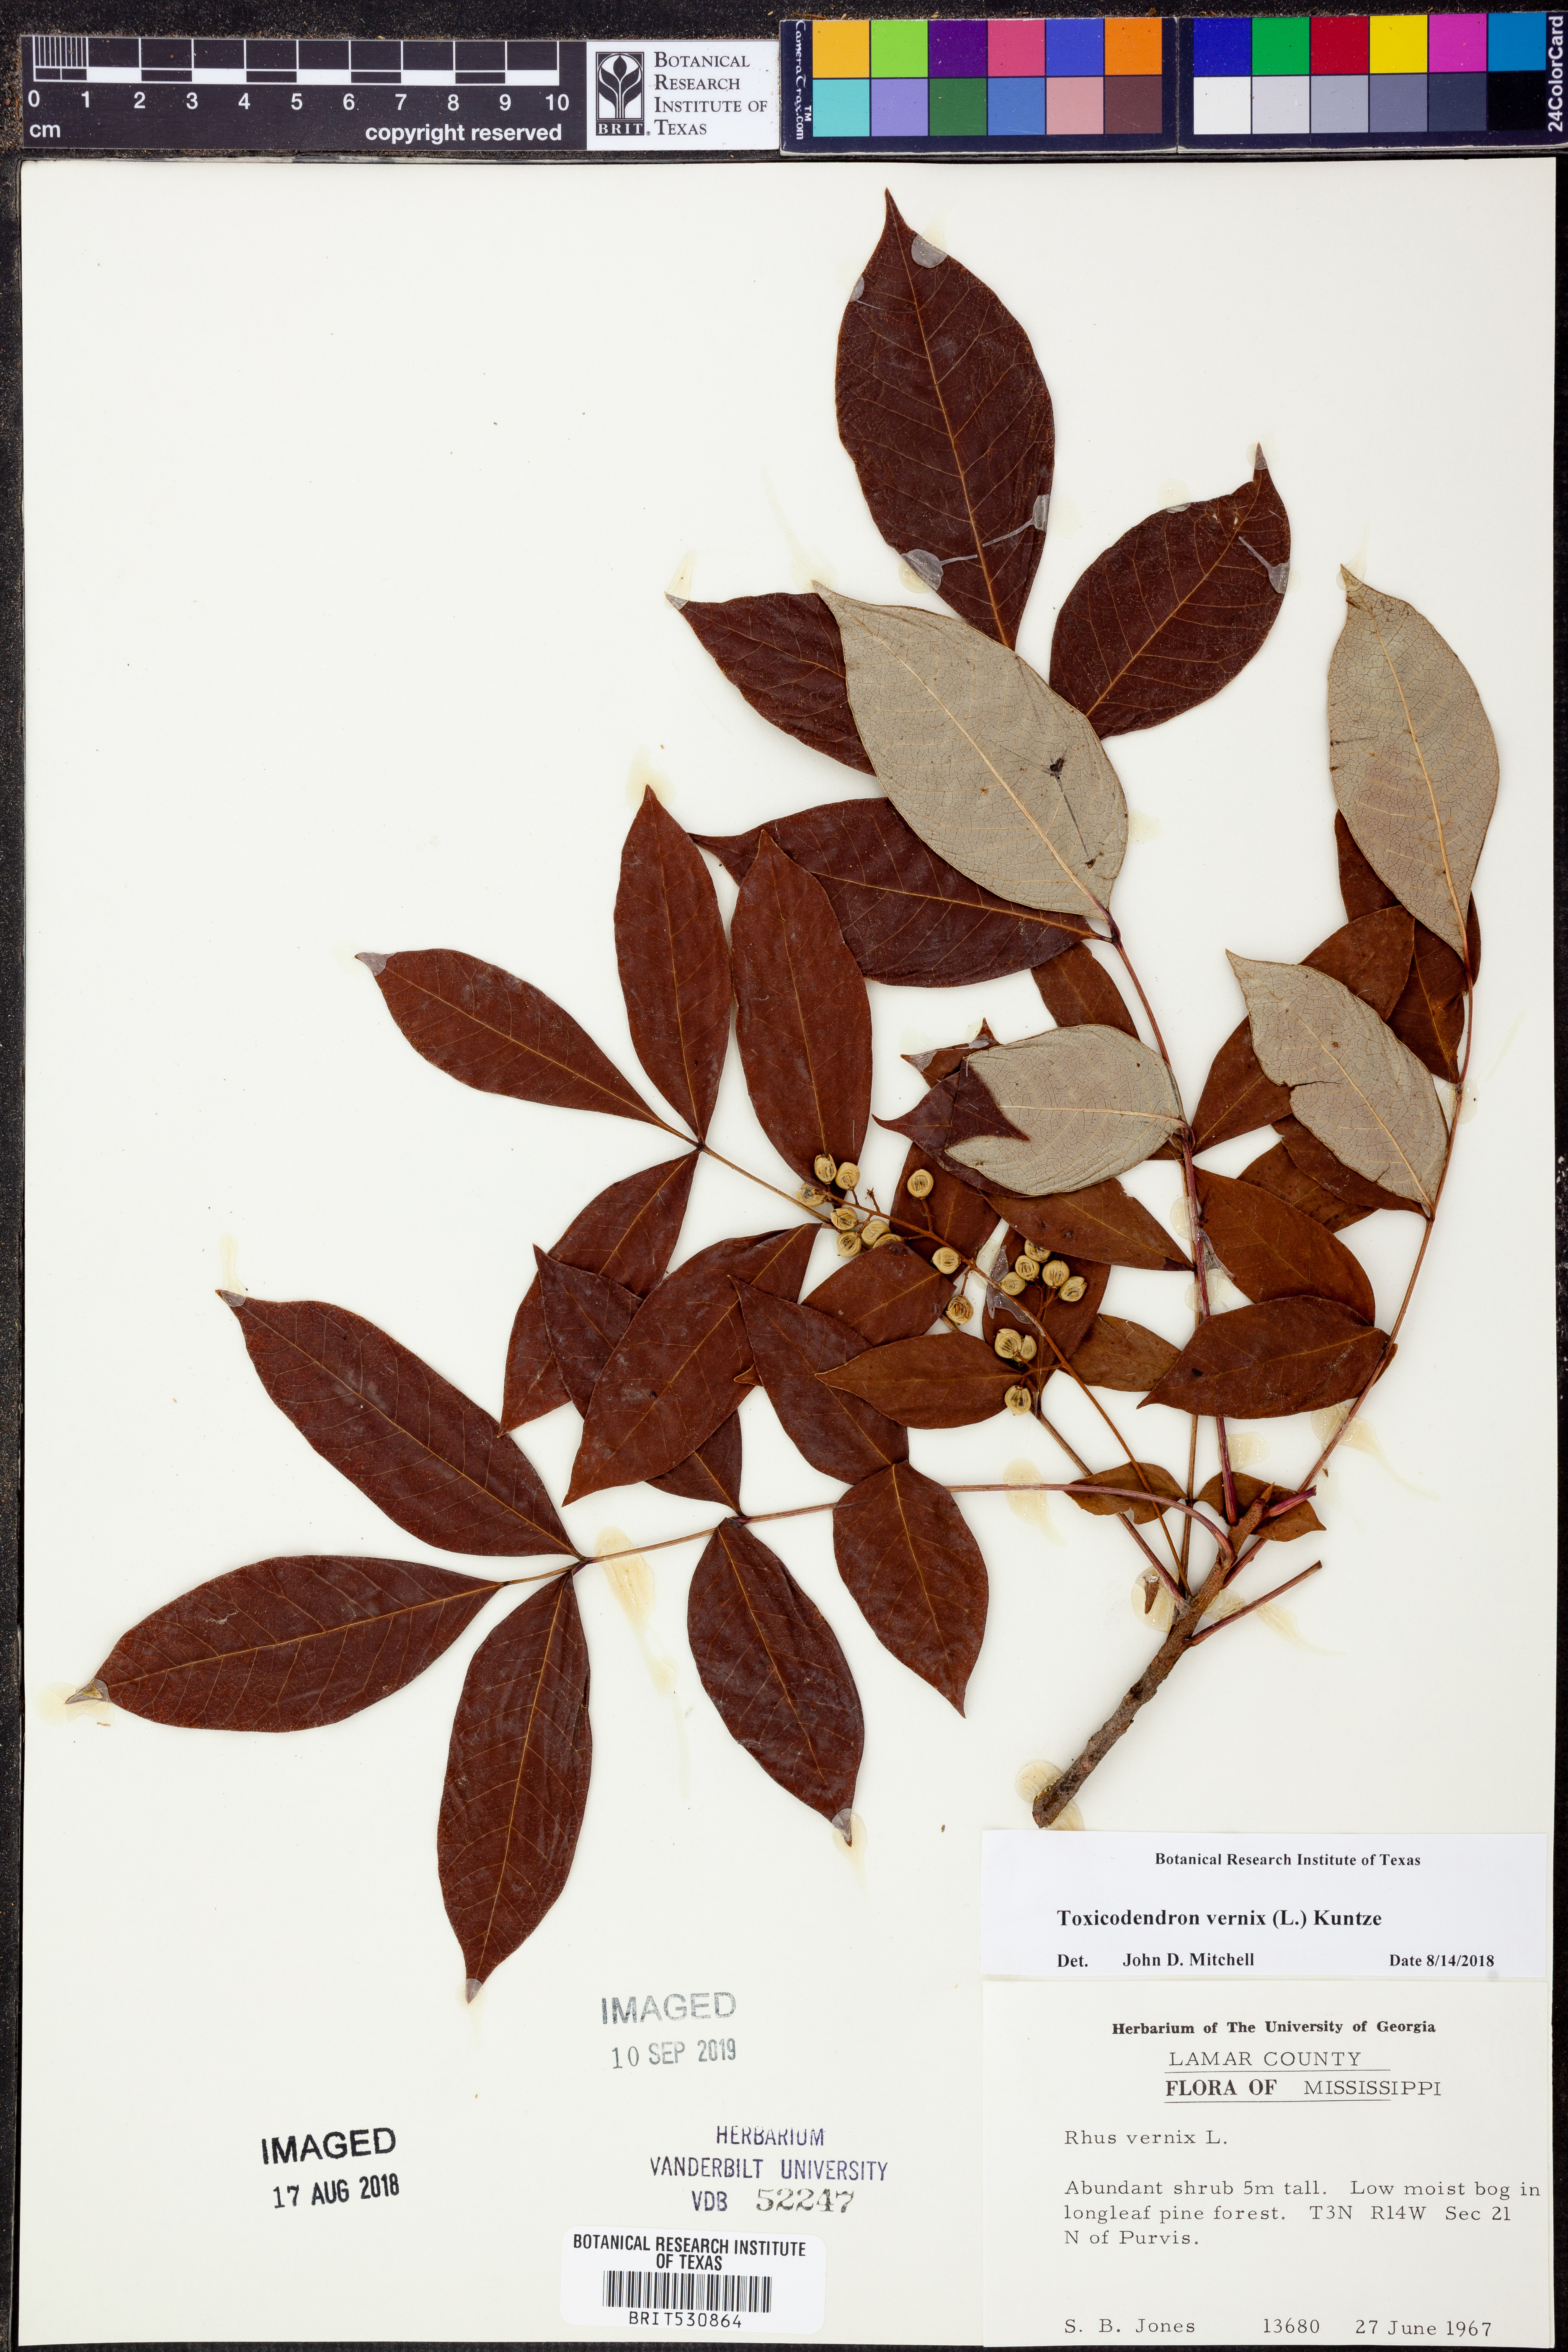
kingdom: Plantae
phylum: Tracheophyta
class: Magnoliopsida
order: Sapindales
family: Anacardiaceae
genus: Toxicodendron
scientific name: Toxicodendron vernix
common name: Poison sumac
